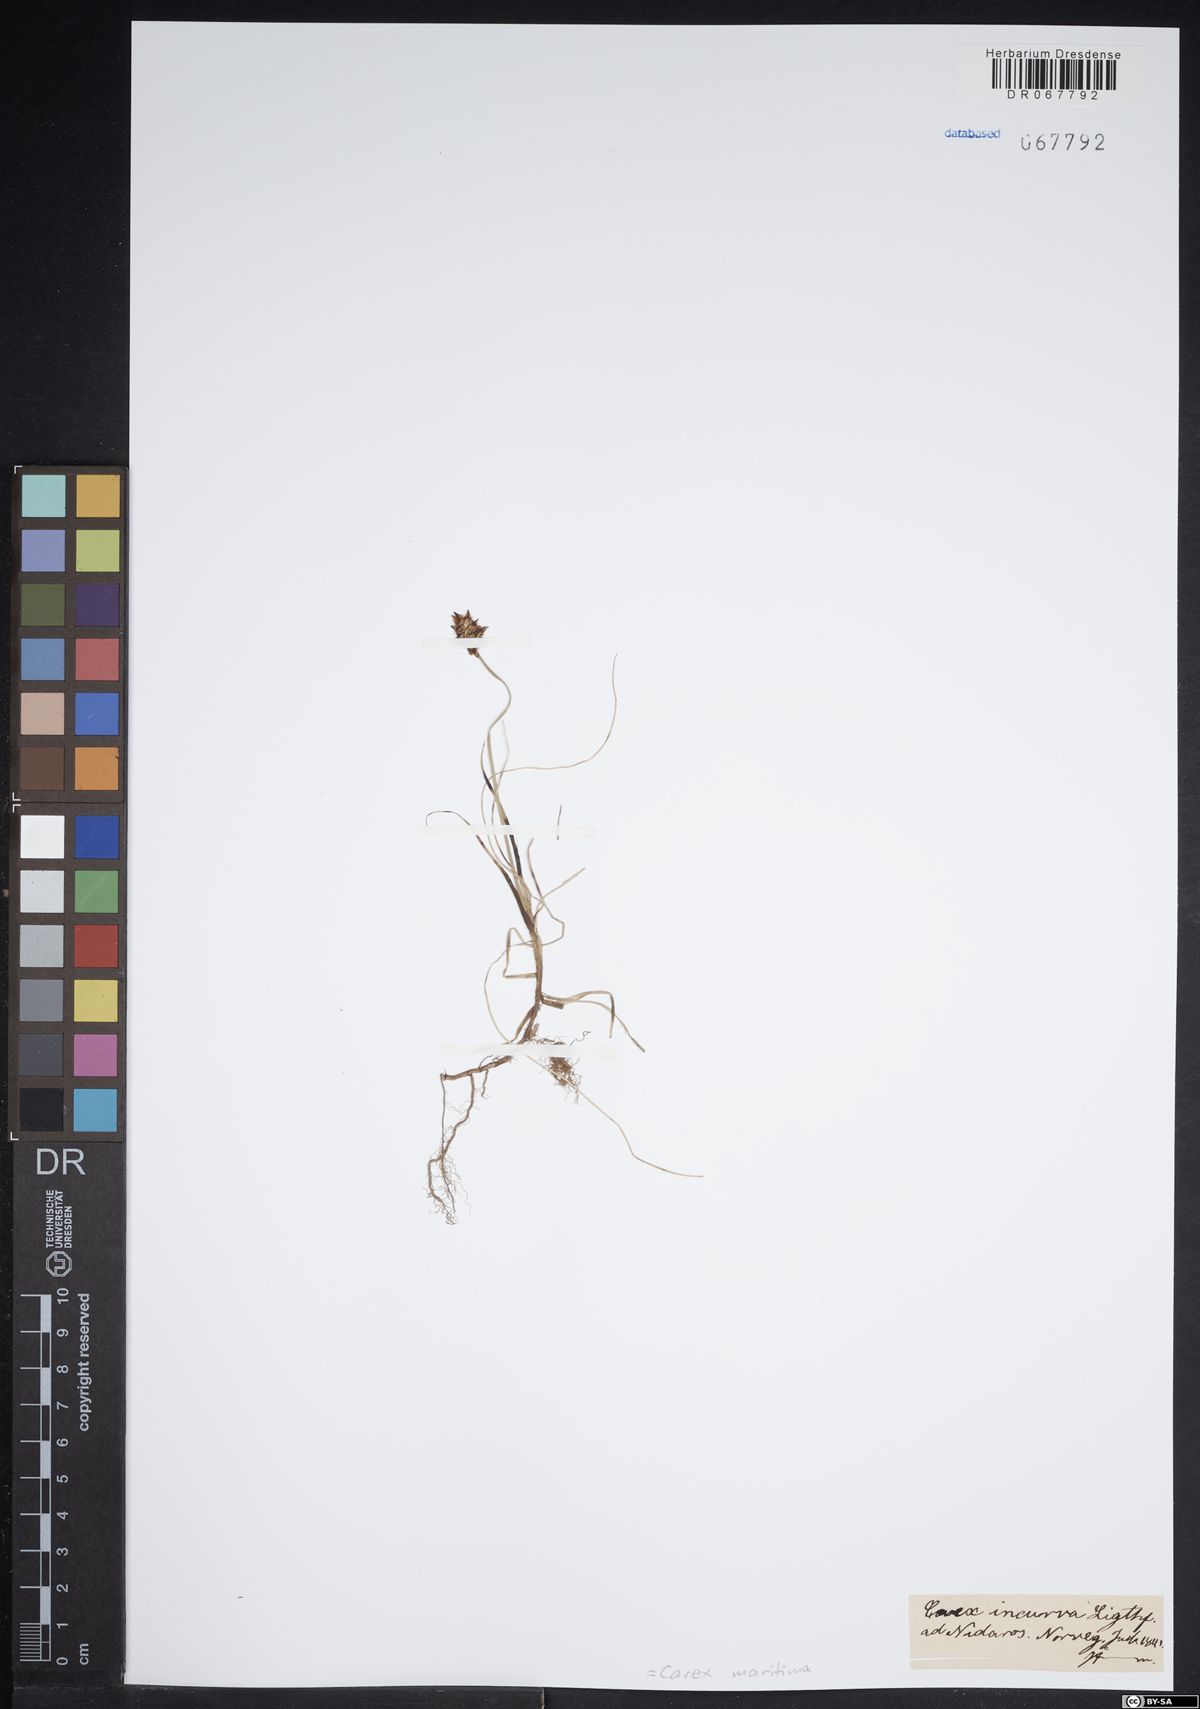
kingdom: Plantae
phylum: Tracheophyta
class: Liliopsida
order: Poales
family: Cyperaceae
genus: Carex
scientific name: Carex maritima
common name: Curved sedge
